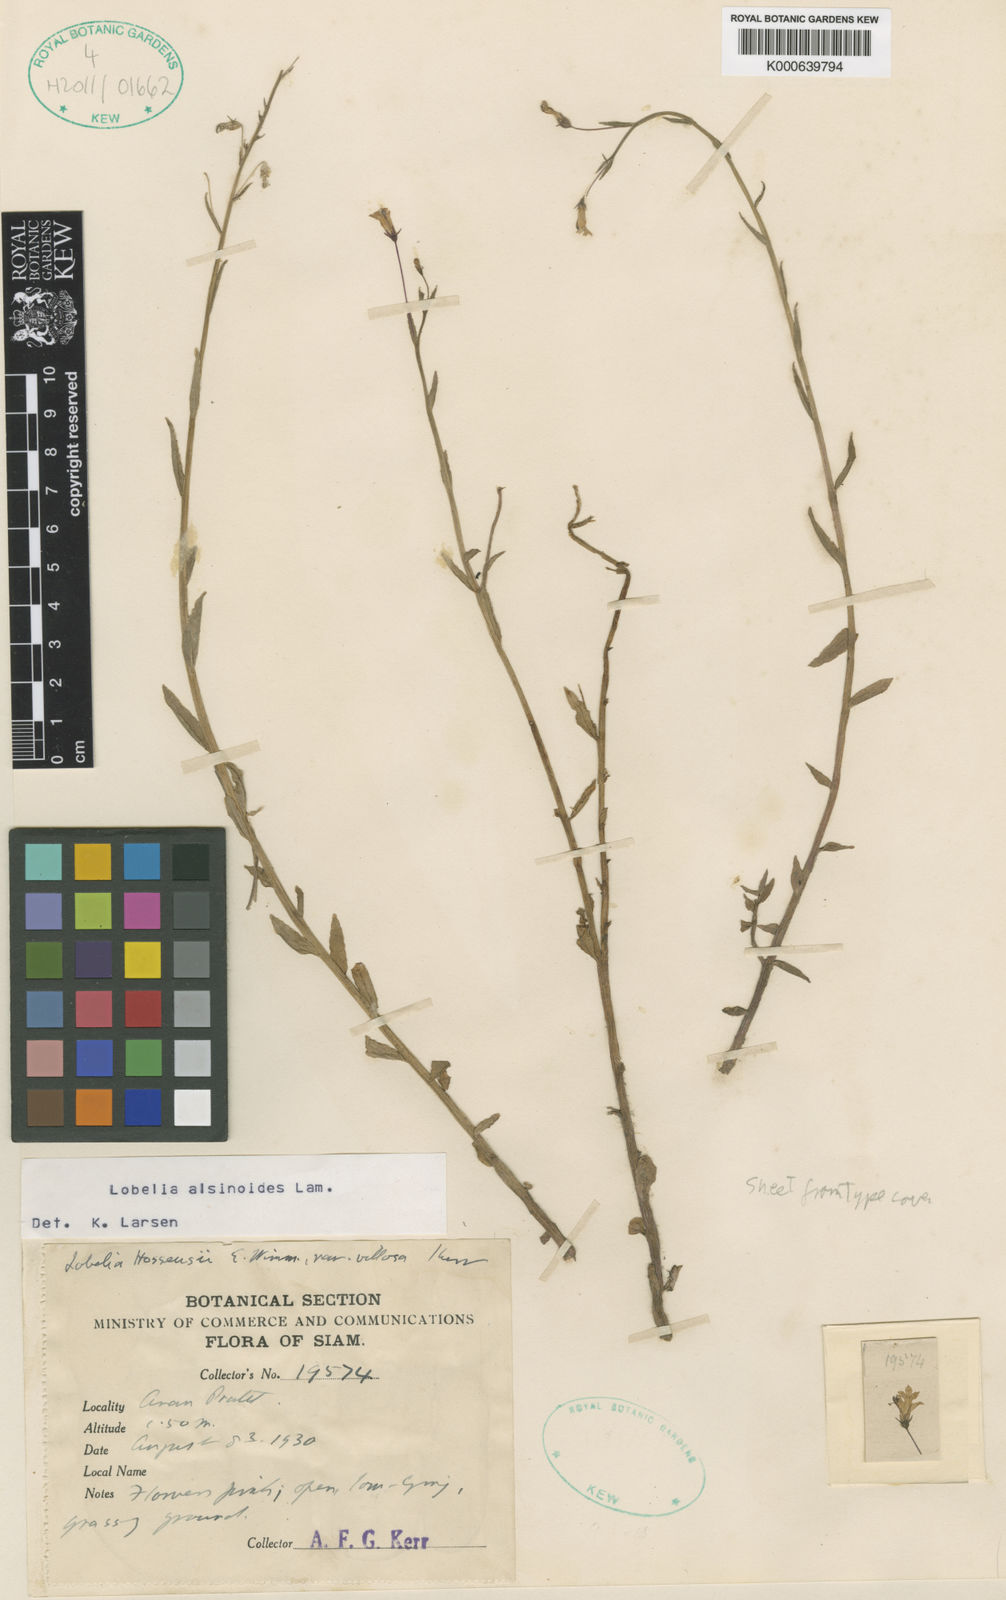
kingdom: Plantae
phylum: Tracheophyta
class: Magnoliopsida
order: Asterales
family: Campanulaceae
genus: Lobelia
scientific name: Lobelia dopatrioides
